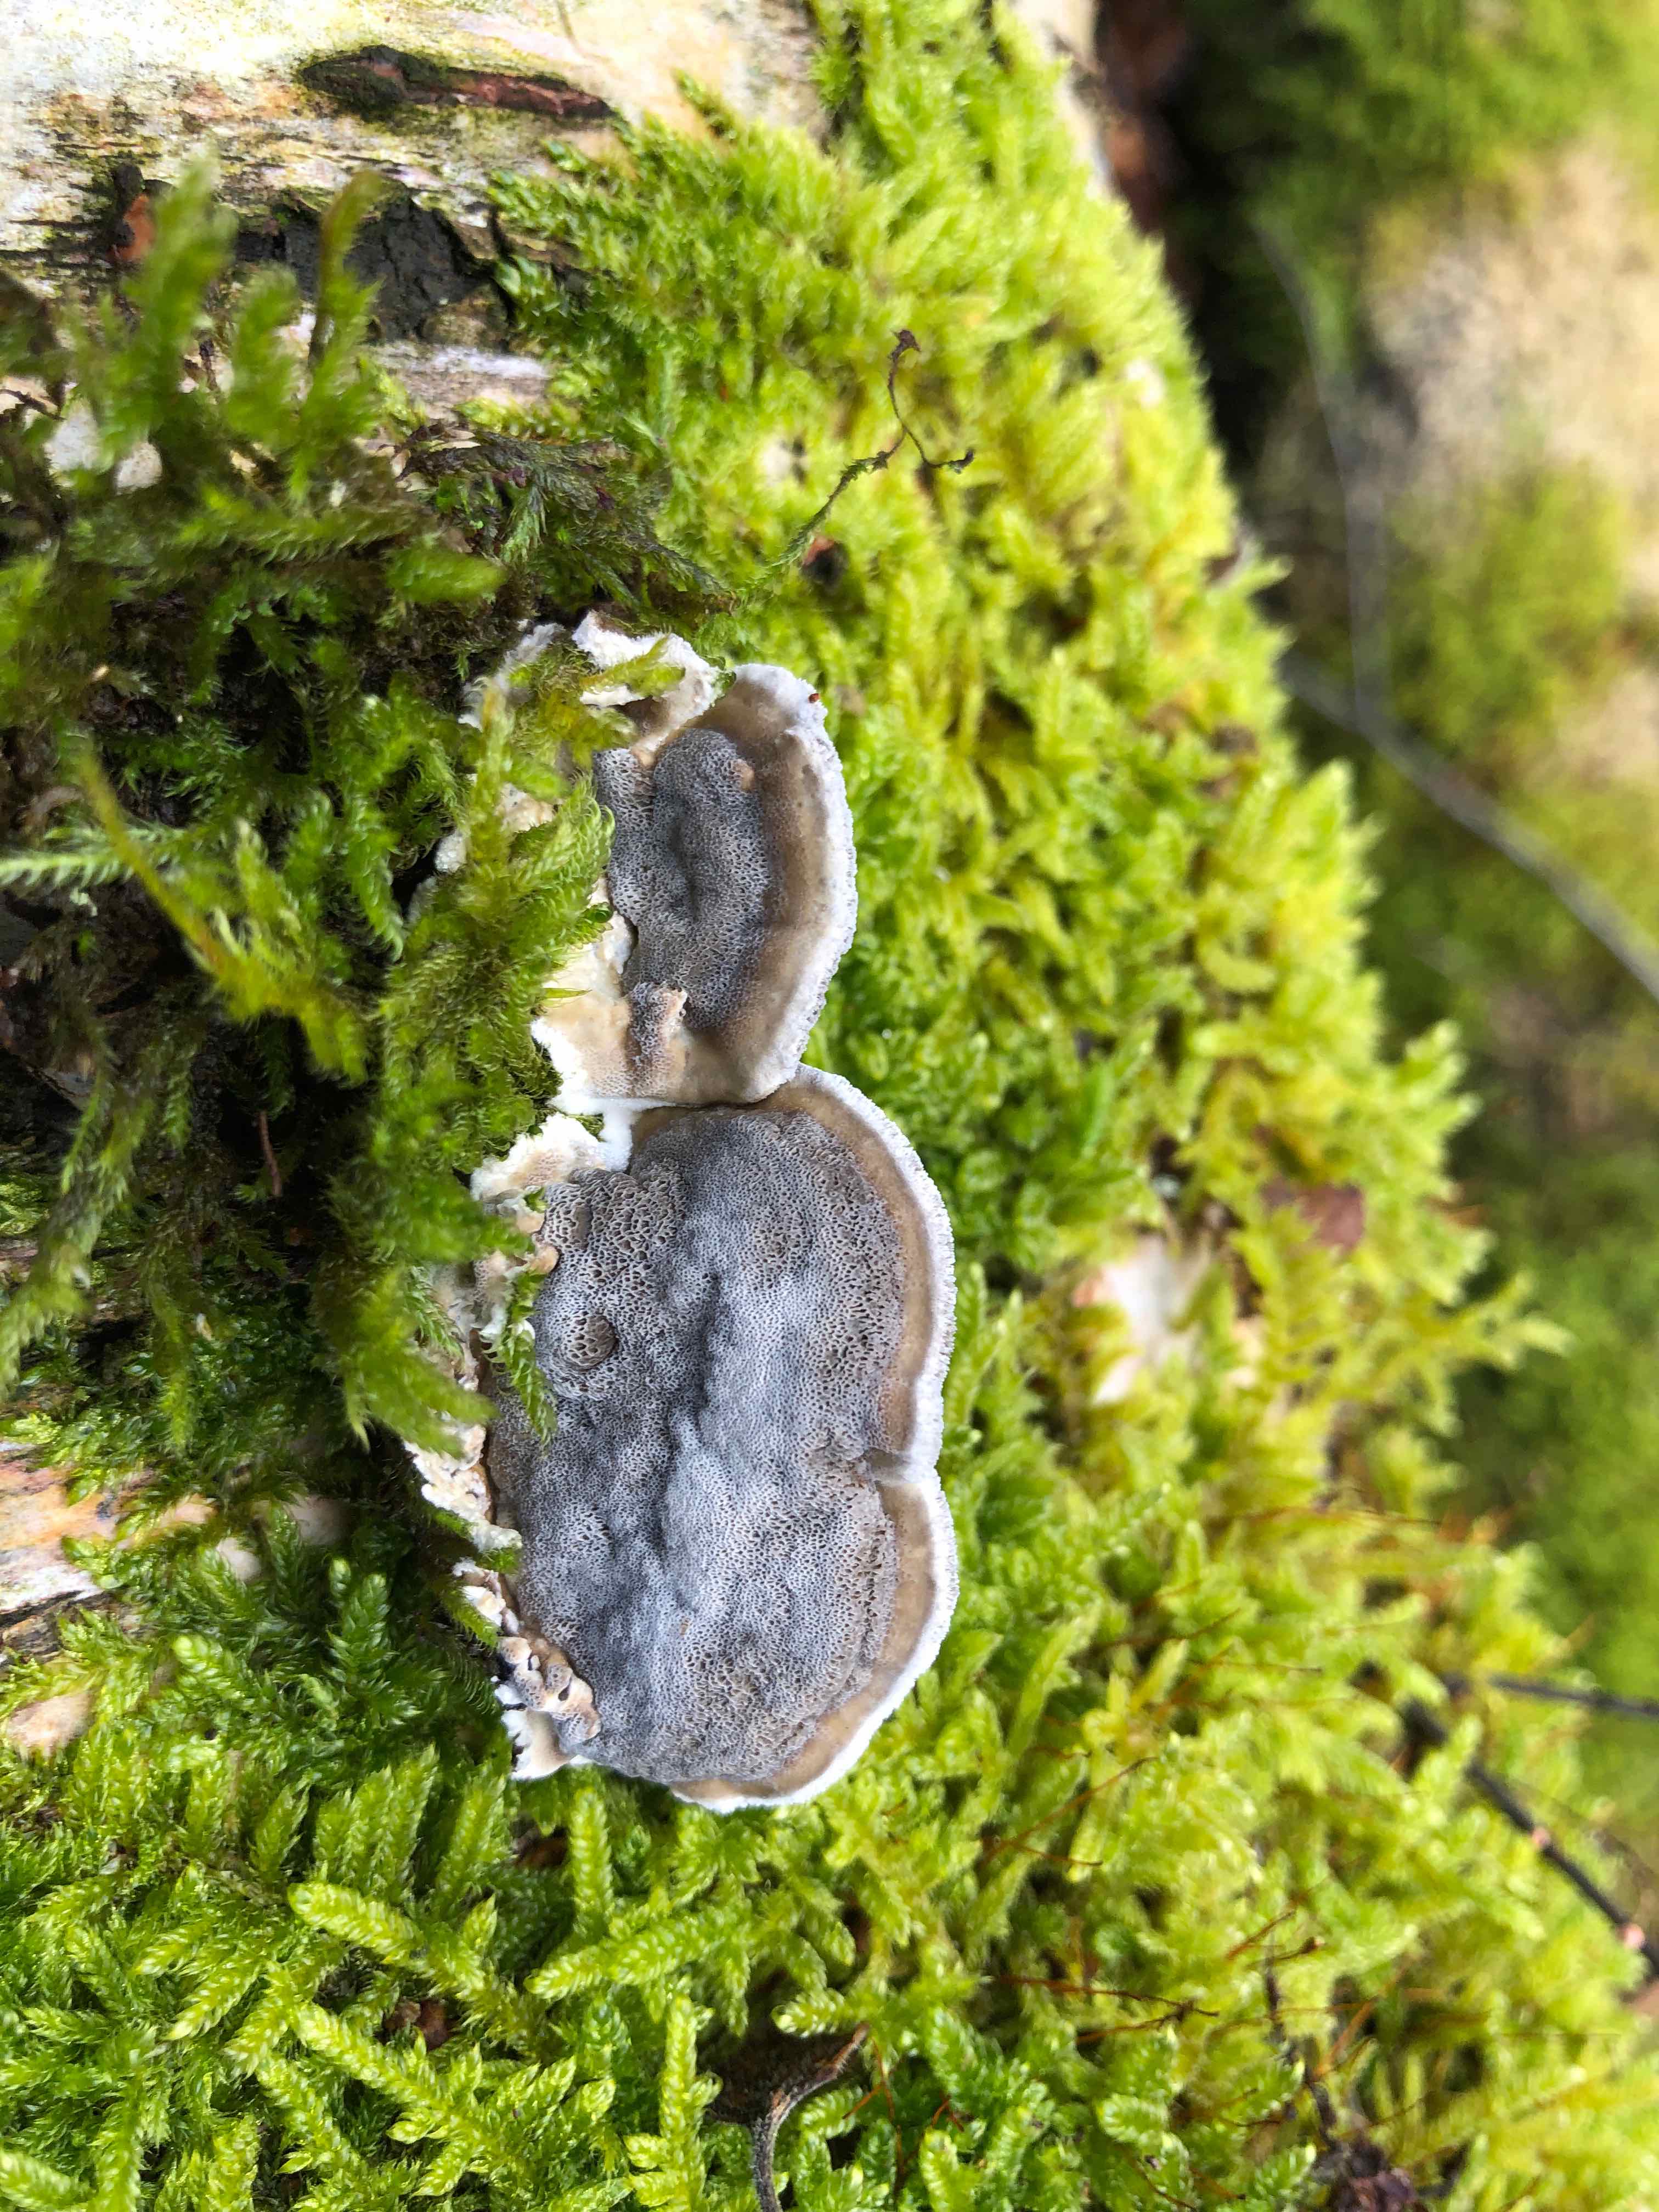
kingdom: Fungi
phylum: Basidiomycota
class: Agaricomycetes
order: Polyporales
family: Phanerochaetaceae
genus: Bjerkandera
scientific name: Bjerkandera adusta
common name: sveden sodporesvamp
